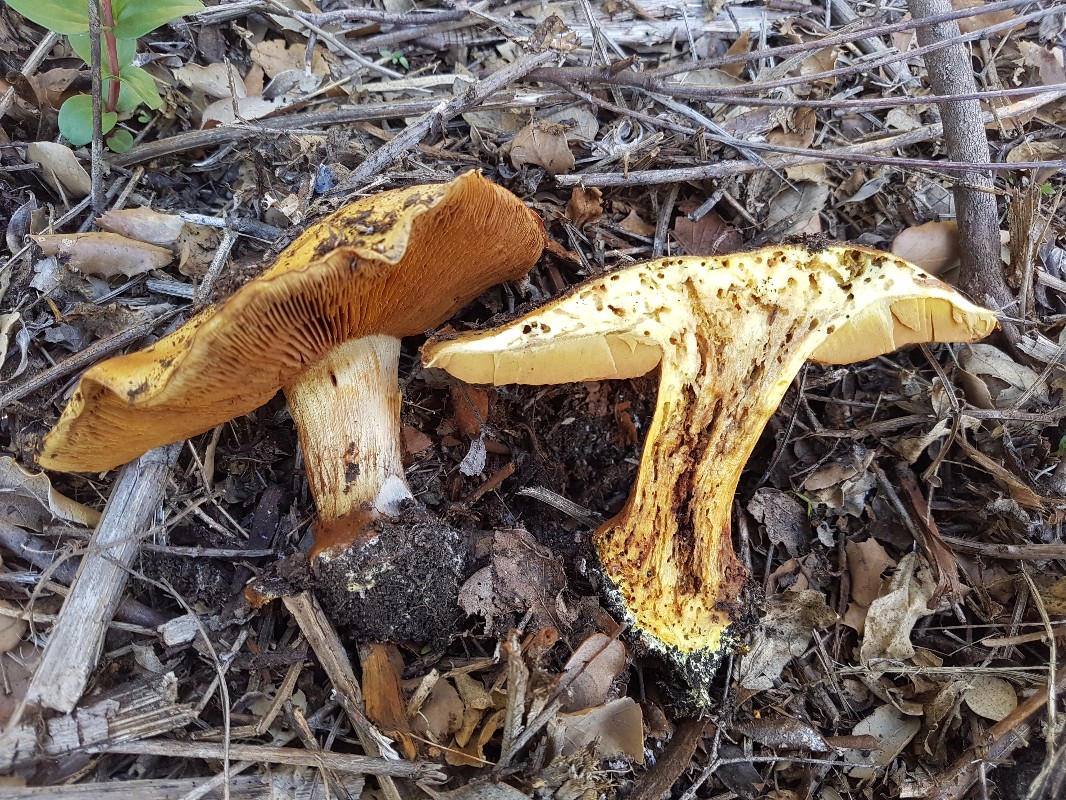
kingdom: Fungi
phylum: Basidiomycota
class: Agaricomycetes
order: Agaricales
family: Cortinariaceae
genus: Calonarius
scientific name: Calonarius alcalinophilus
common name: gyldenbrun slørhat
